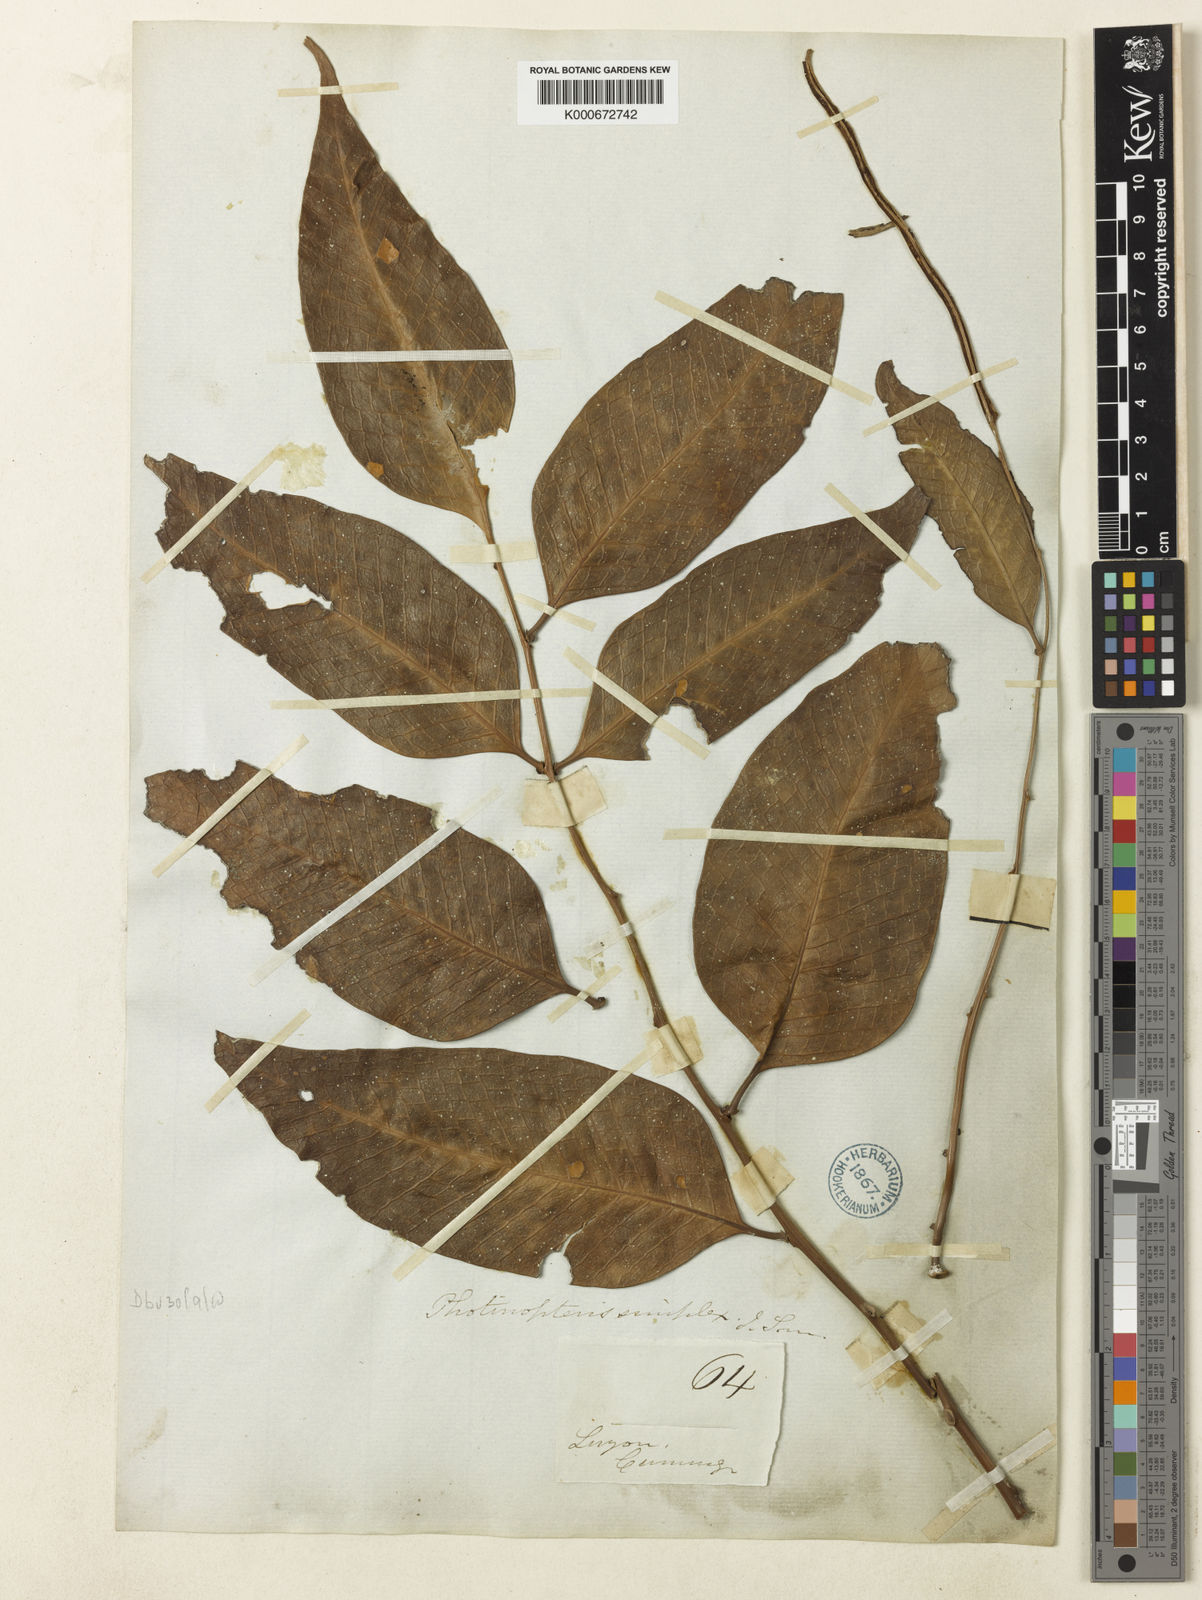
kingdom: Plantae
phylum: Tracheophyta
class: Polypodiopsida
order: Polypodiales
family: Polypodiaceae
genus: Drynaria
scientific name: Drynaria
